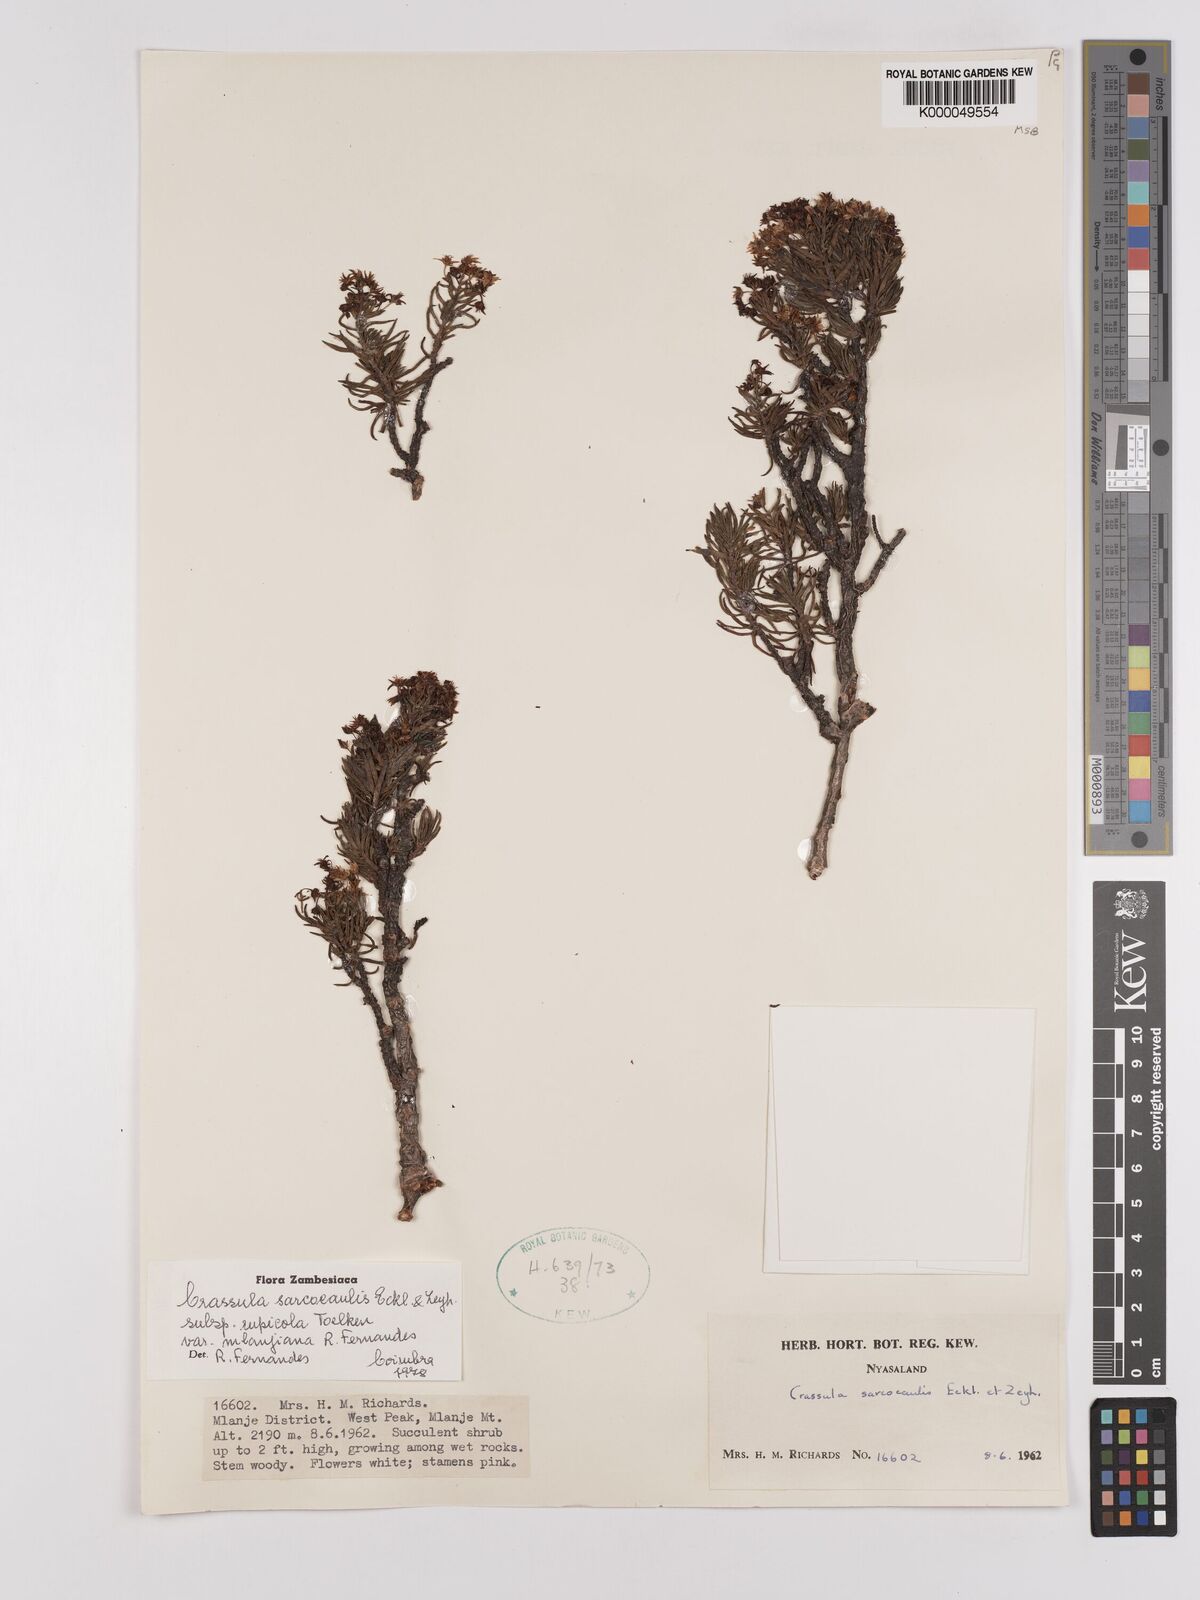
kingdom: Plantae
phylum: Tracheophyta
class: Magnoliopsida
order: Saxifragales
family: Crassulaceae
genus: Crassula
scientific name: Crassula sarcocaulis
